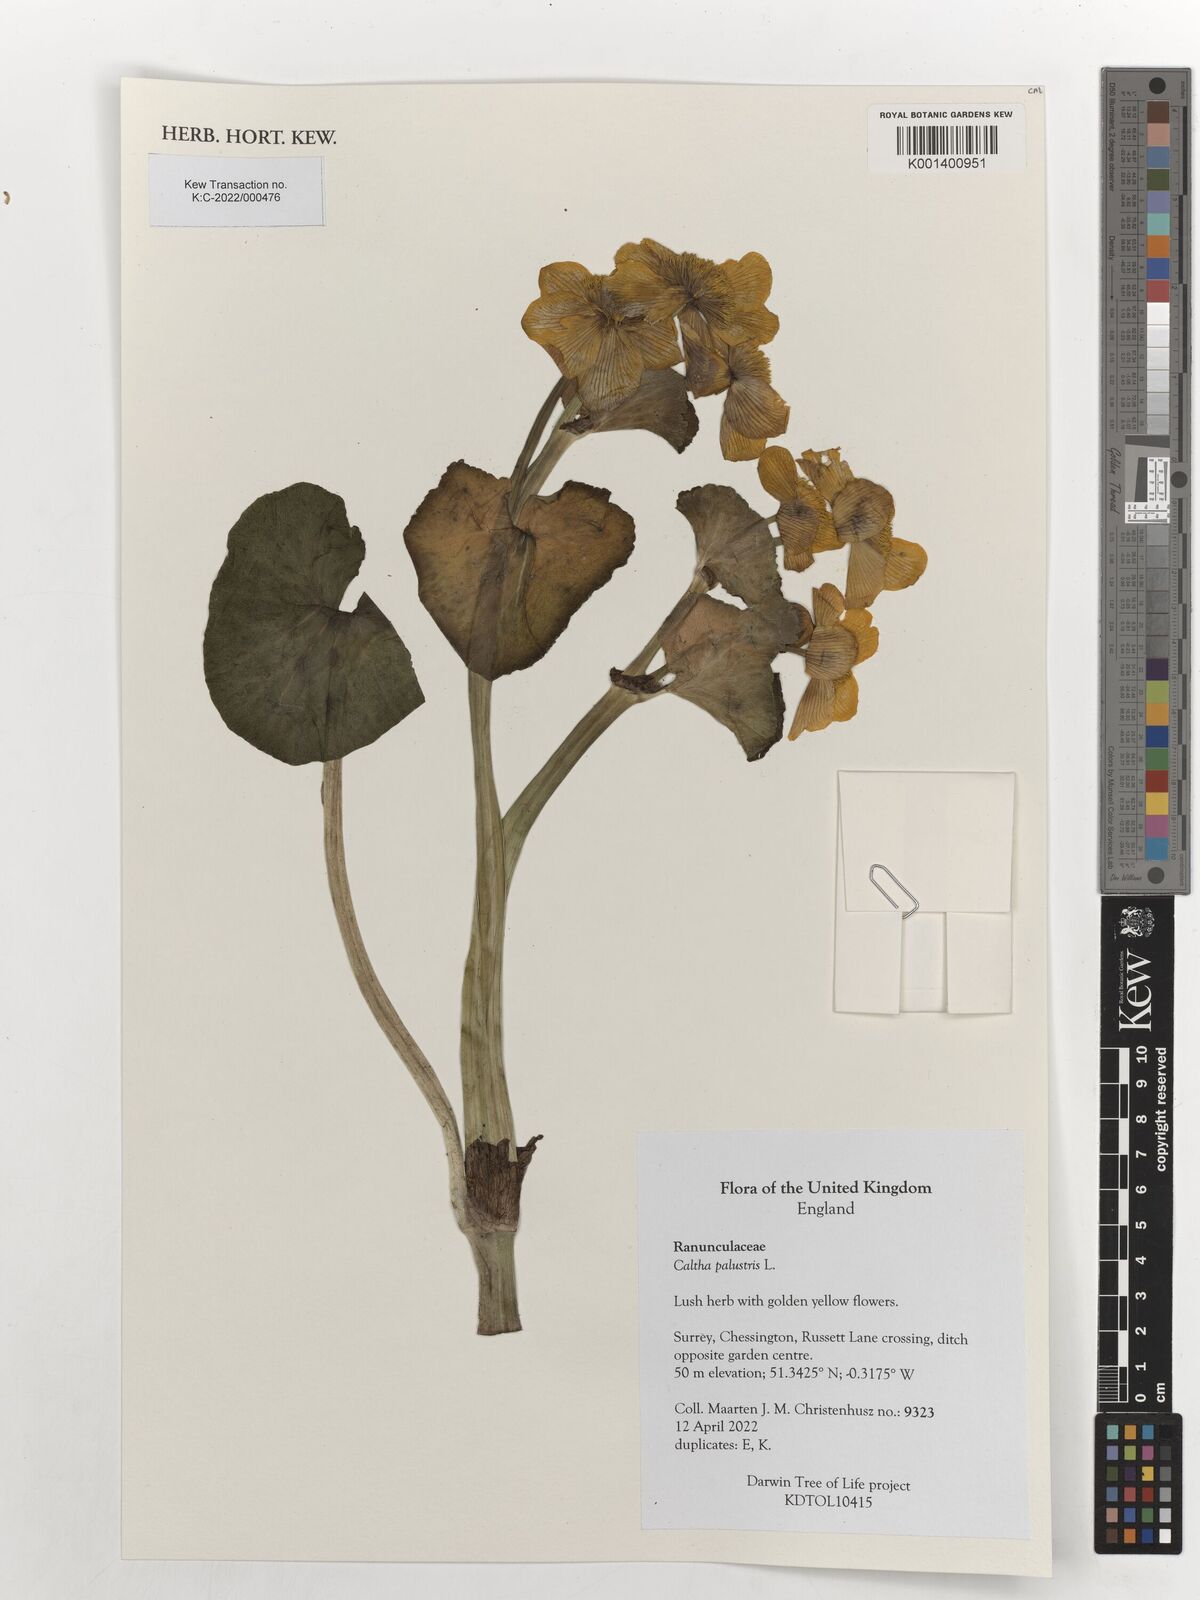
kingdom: Plantae
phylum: Tracheophyta
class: Magnoliopsida
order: Ranunculales
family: Ranunculaceae
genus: Caltha
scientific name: Caltha palustris
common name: Marsh marigold
